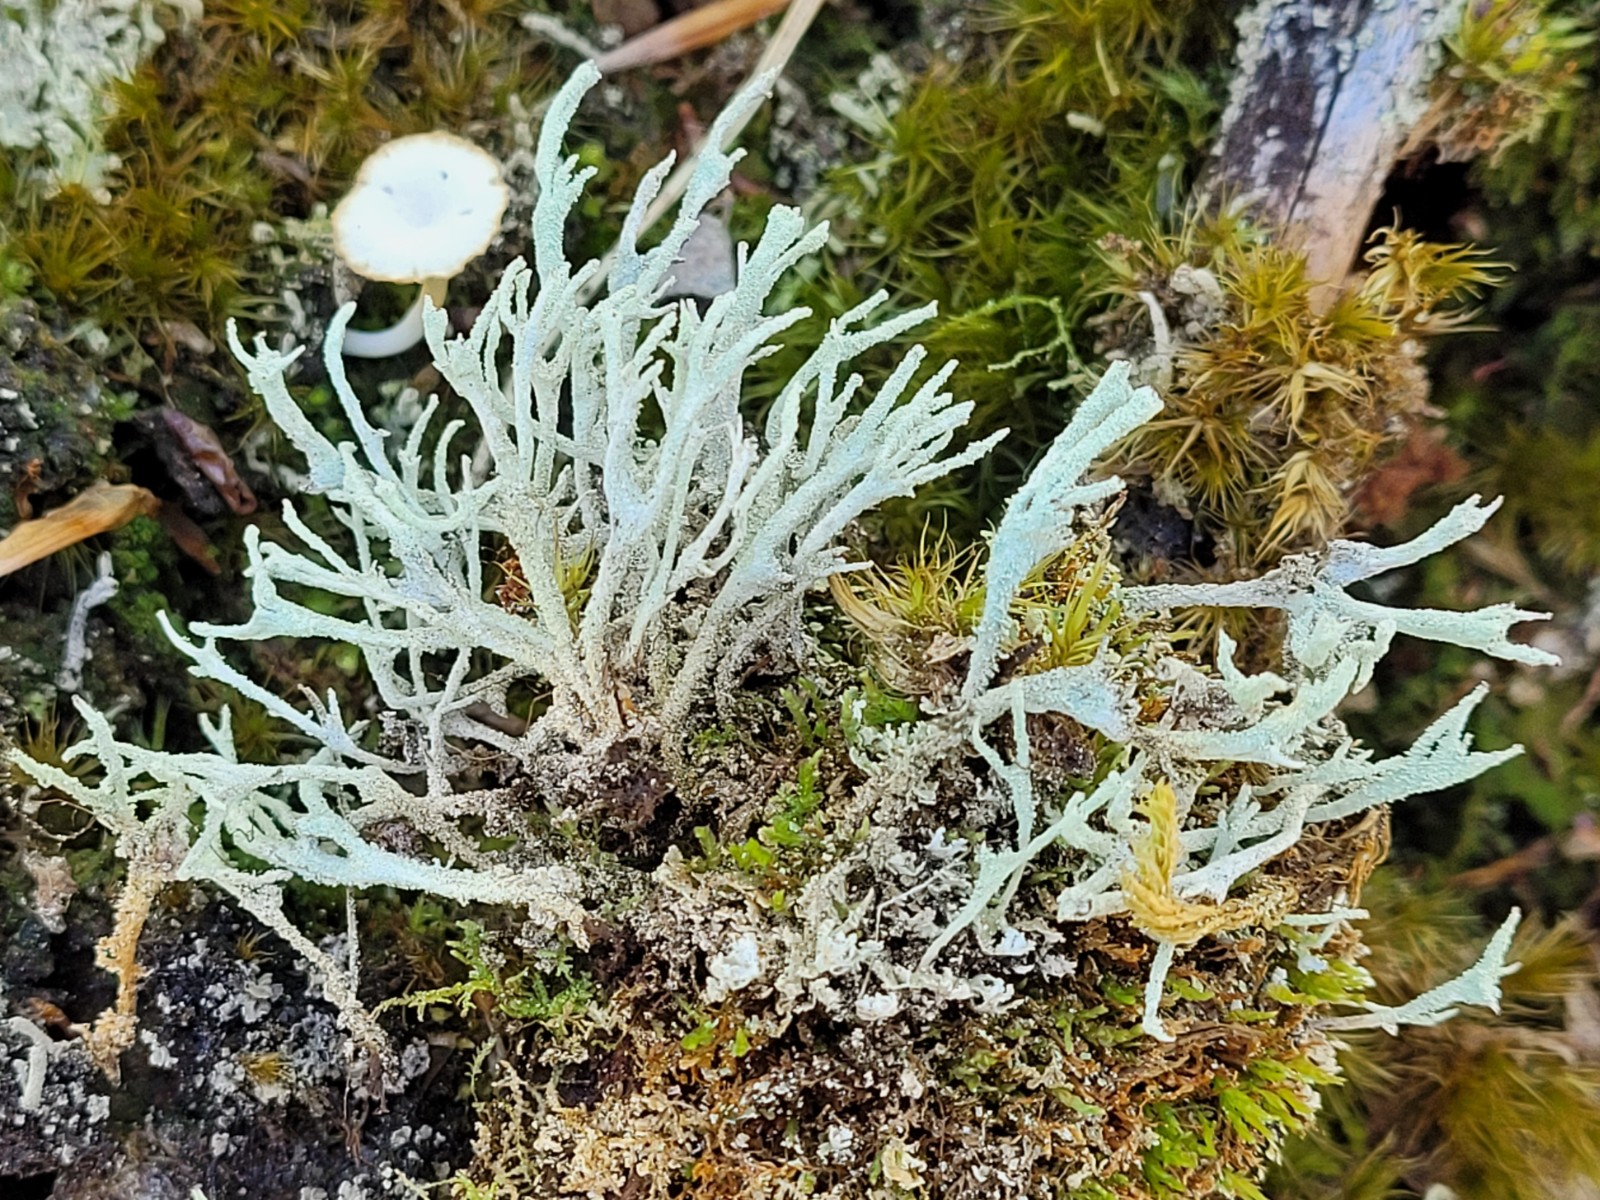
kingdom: Fungi
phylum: Ascomycota
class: Lecanoromycetes
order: Lecanorales
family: Cladoniaceae
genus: Cladonia
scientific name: Cladonia ramulosa
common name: kliddet bægerlav
